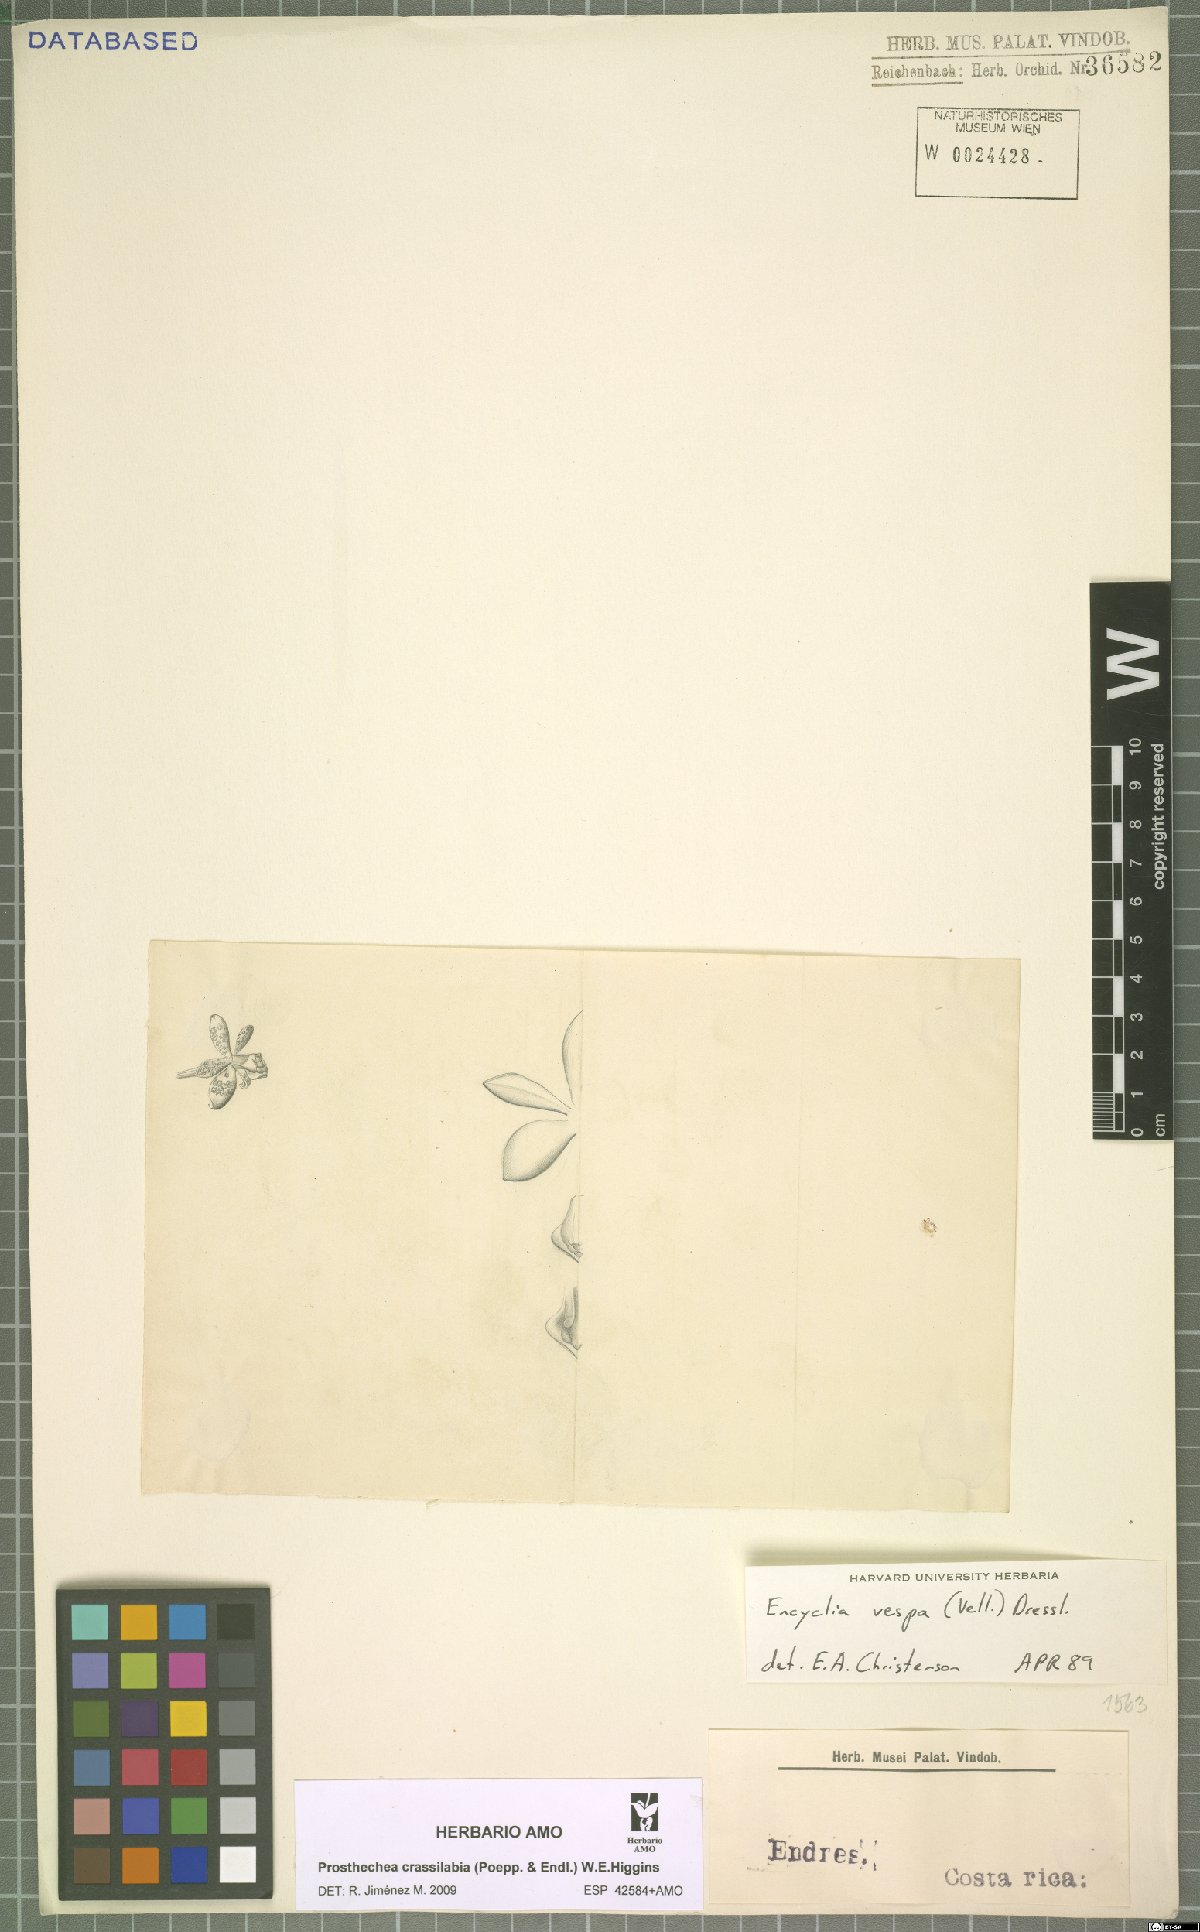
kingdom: Plantae
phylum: Tracheophyta
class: Liliopsida
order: Asparagales
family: Orchidaceae
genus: Prosthechea
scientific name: Prosthechea crassilabia
